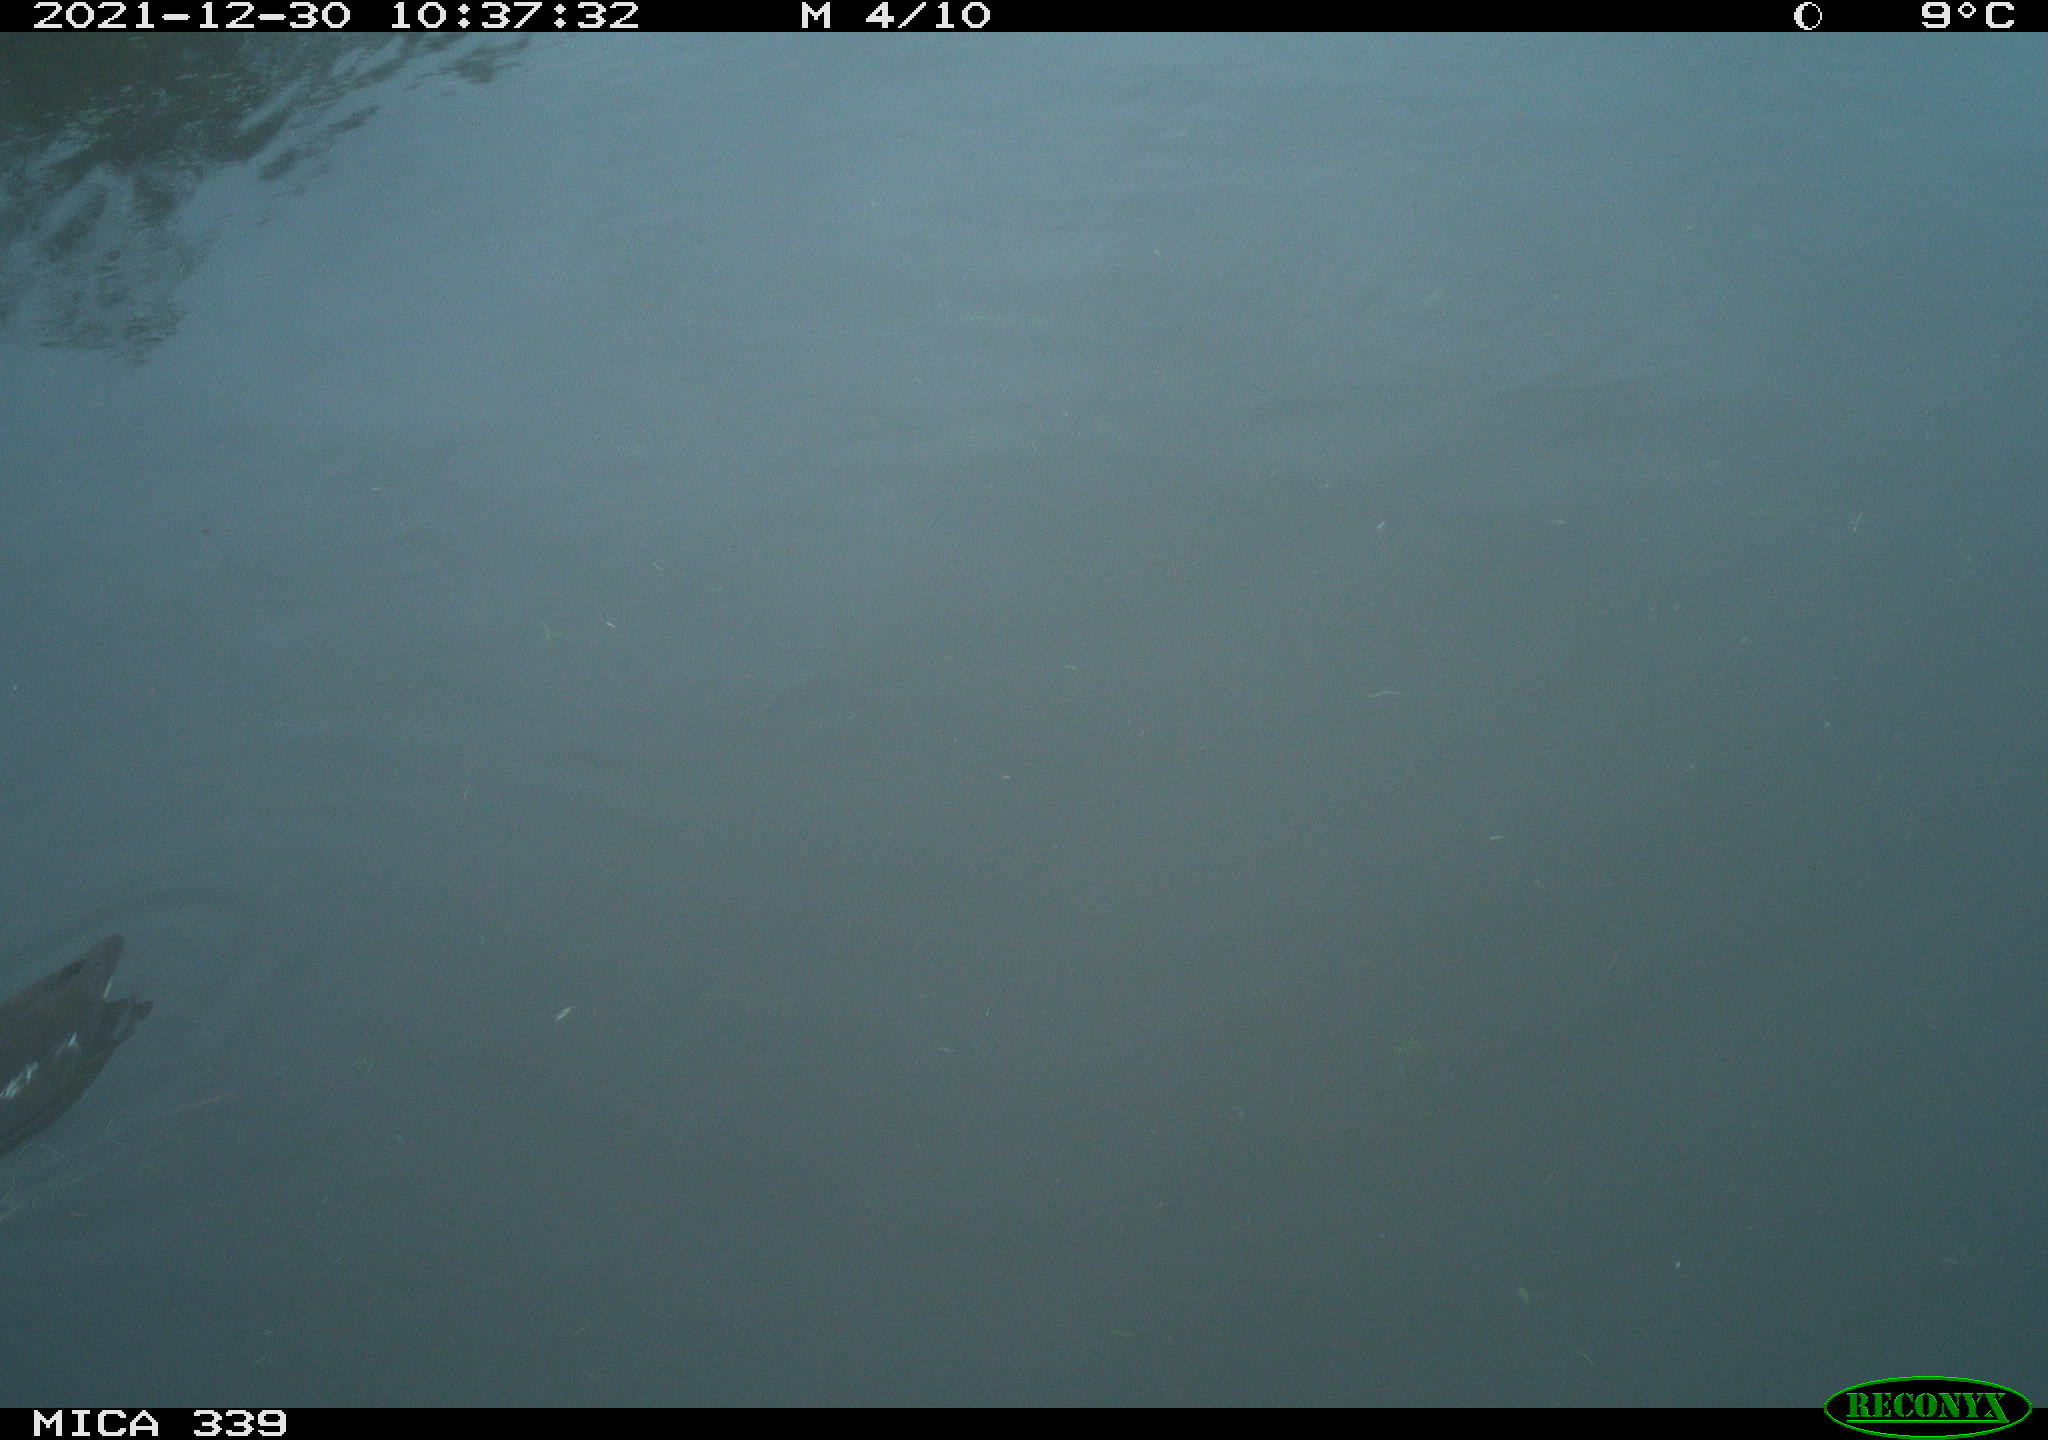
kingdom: Animalia
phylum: Chordata
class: Aves
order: Gruiformes
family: Rallidae
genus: Gallinula
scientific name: Gallinula chloropus
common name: Common moorhen
